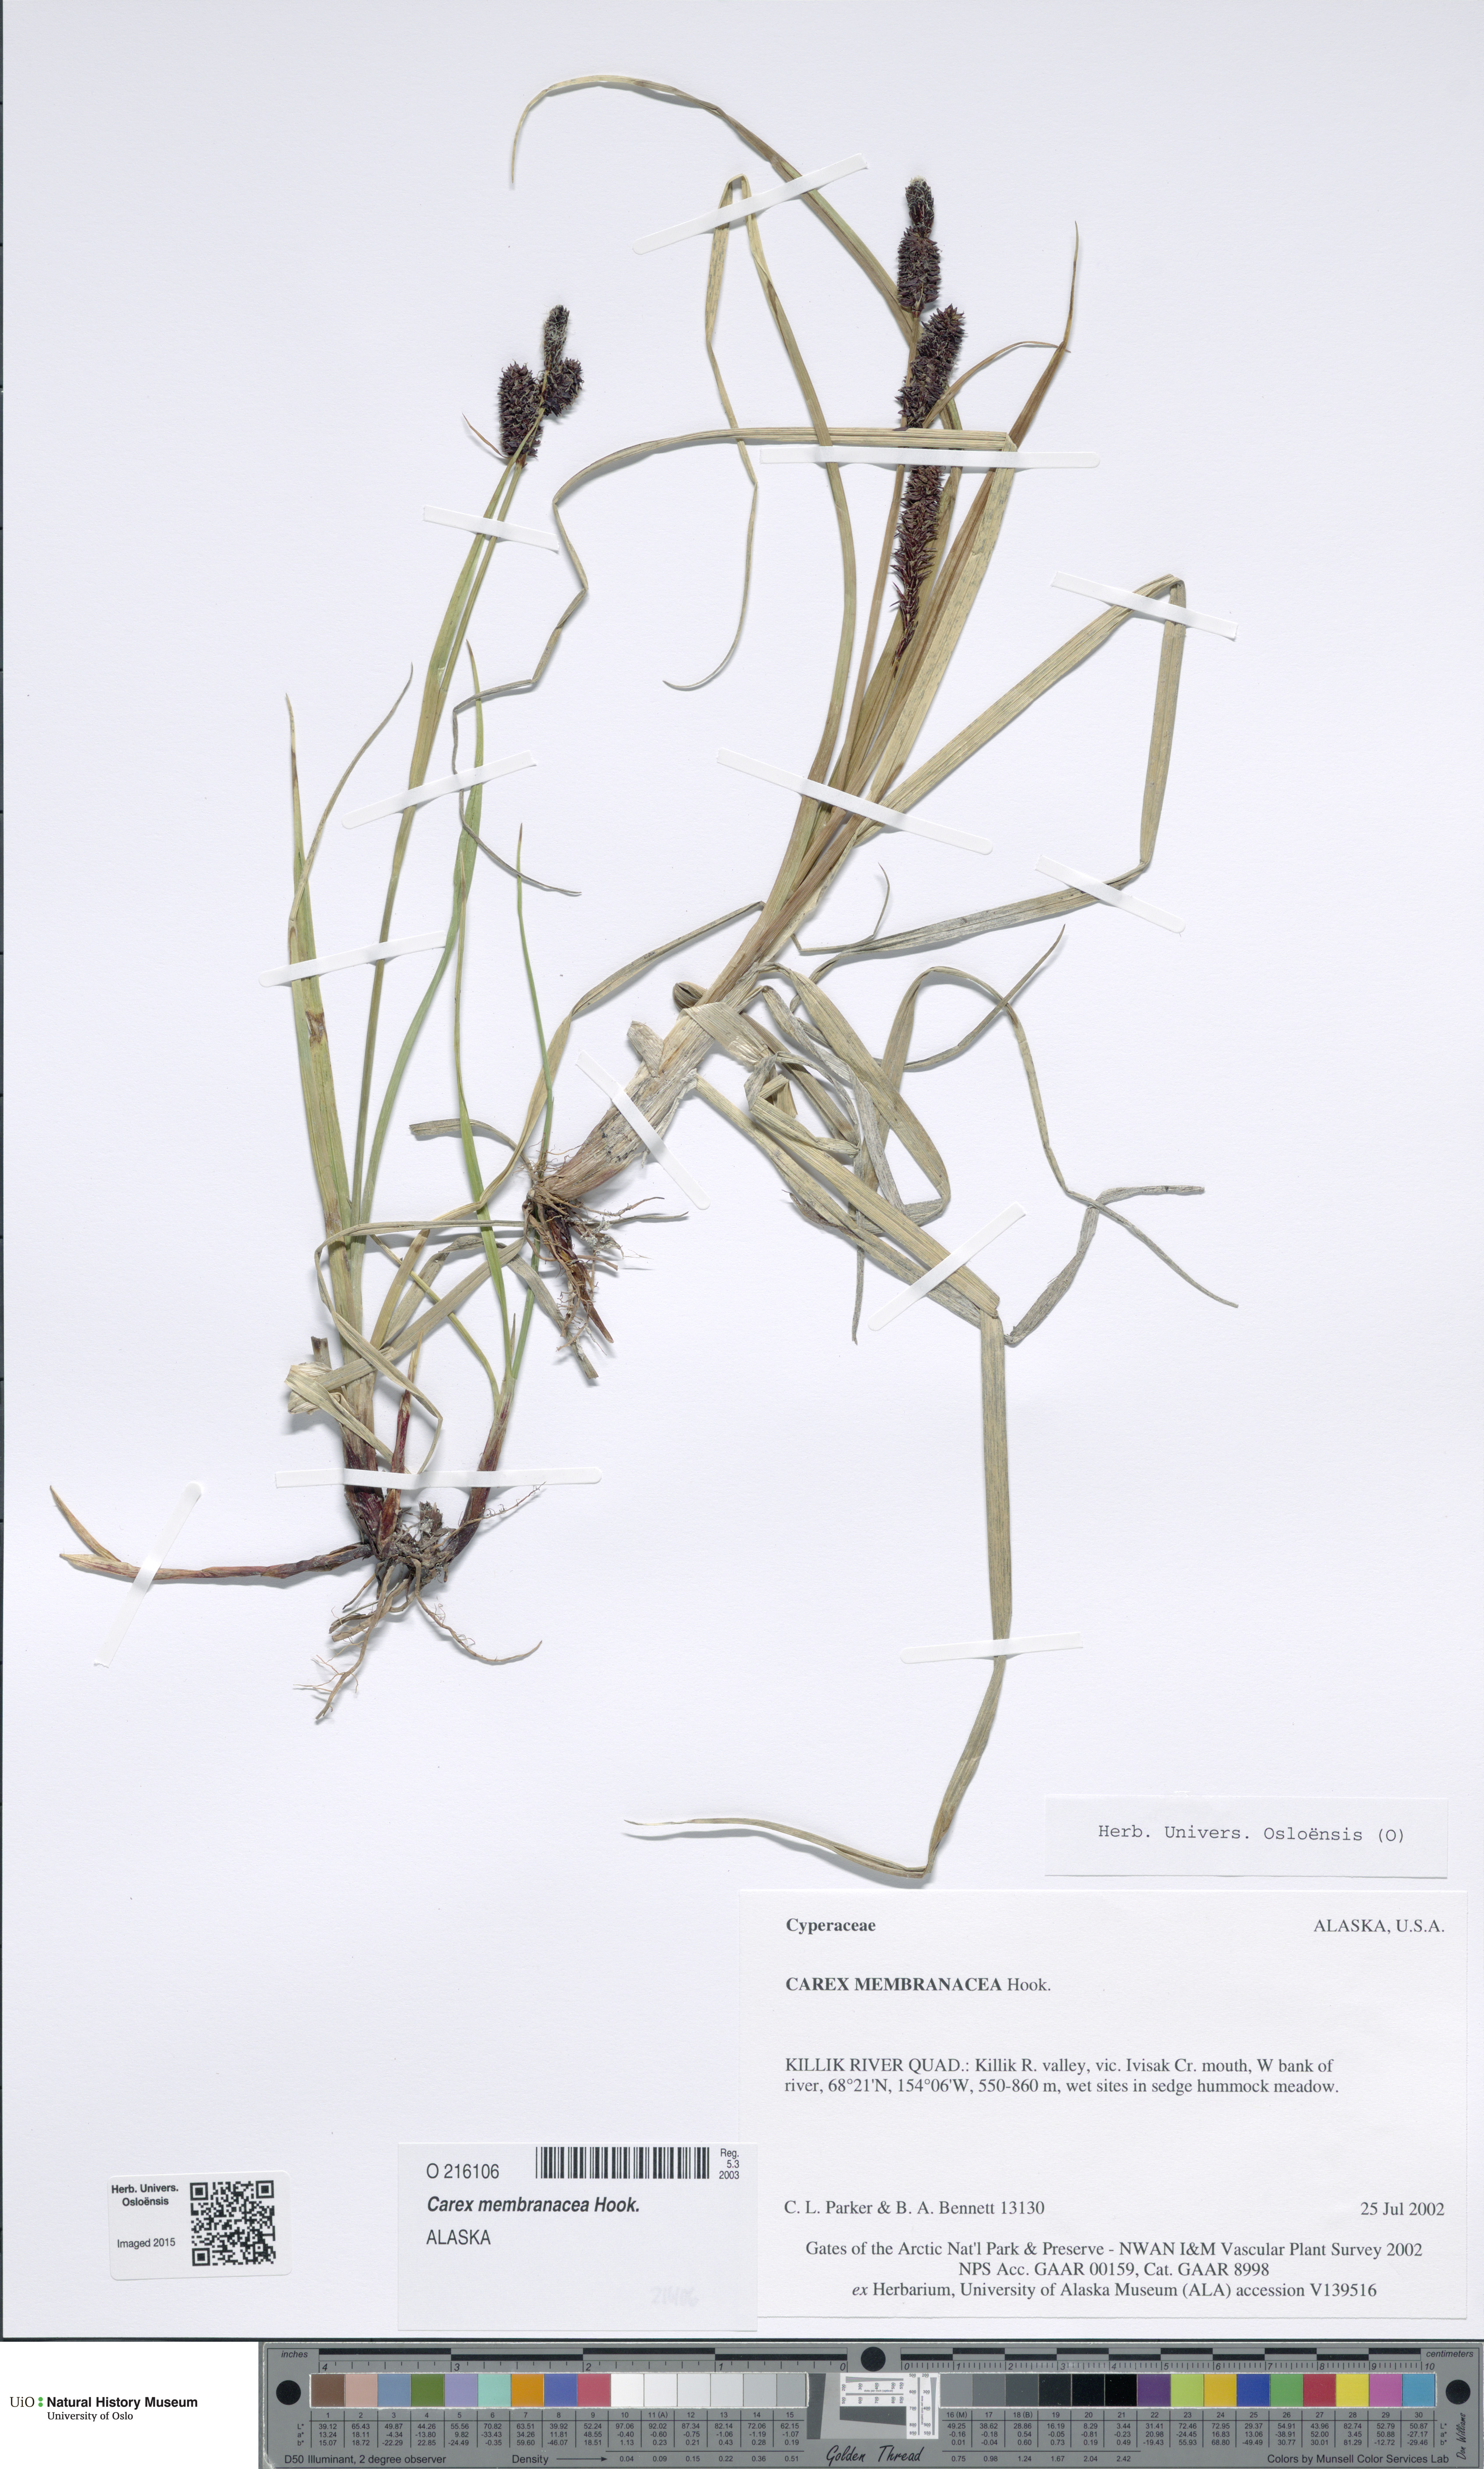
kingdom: Plantae
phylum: Tracheophyta
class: Liliopsida
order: Poales
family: Cyperaceae
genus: Carex
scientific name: Carex membranacea
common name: Fragile sedge
